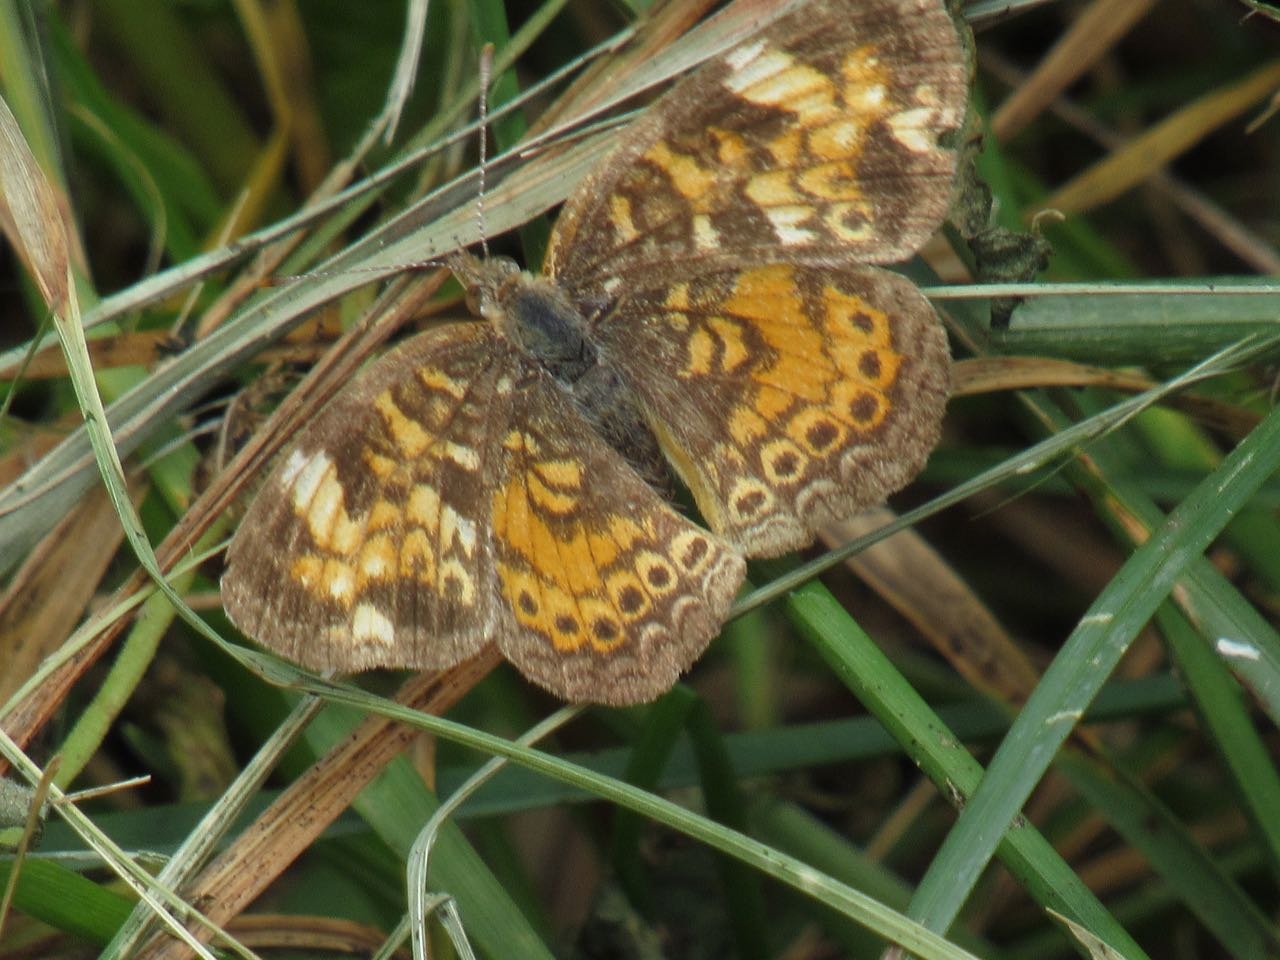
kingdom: Animalia
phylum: Arthropoda
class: Insecta
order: Lepidoptera
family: Nymphalidae
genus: Phyciodes
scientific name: Phyciodes tharos
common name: Pearl Crescent
